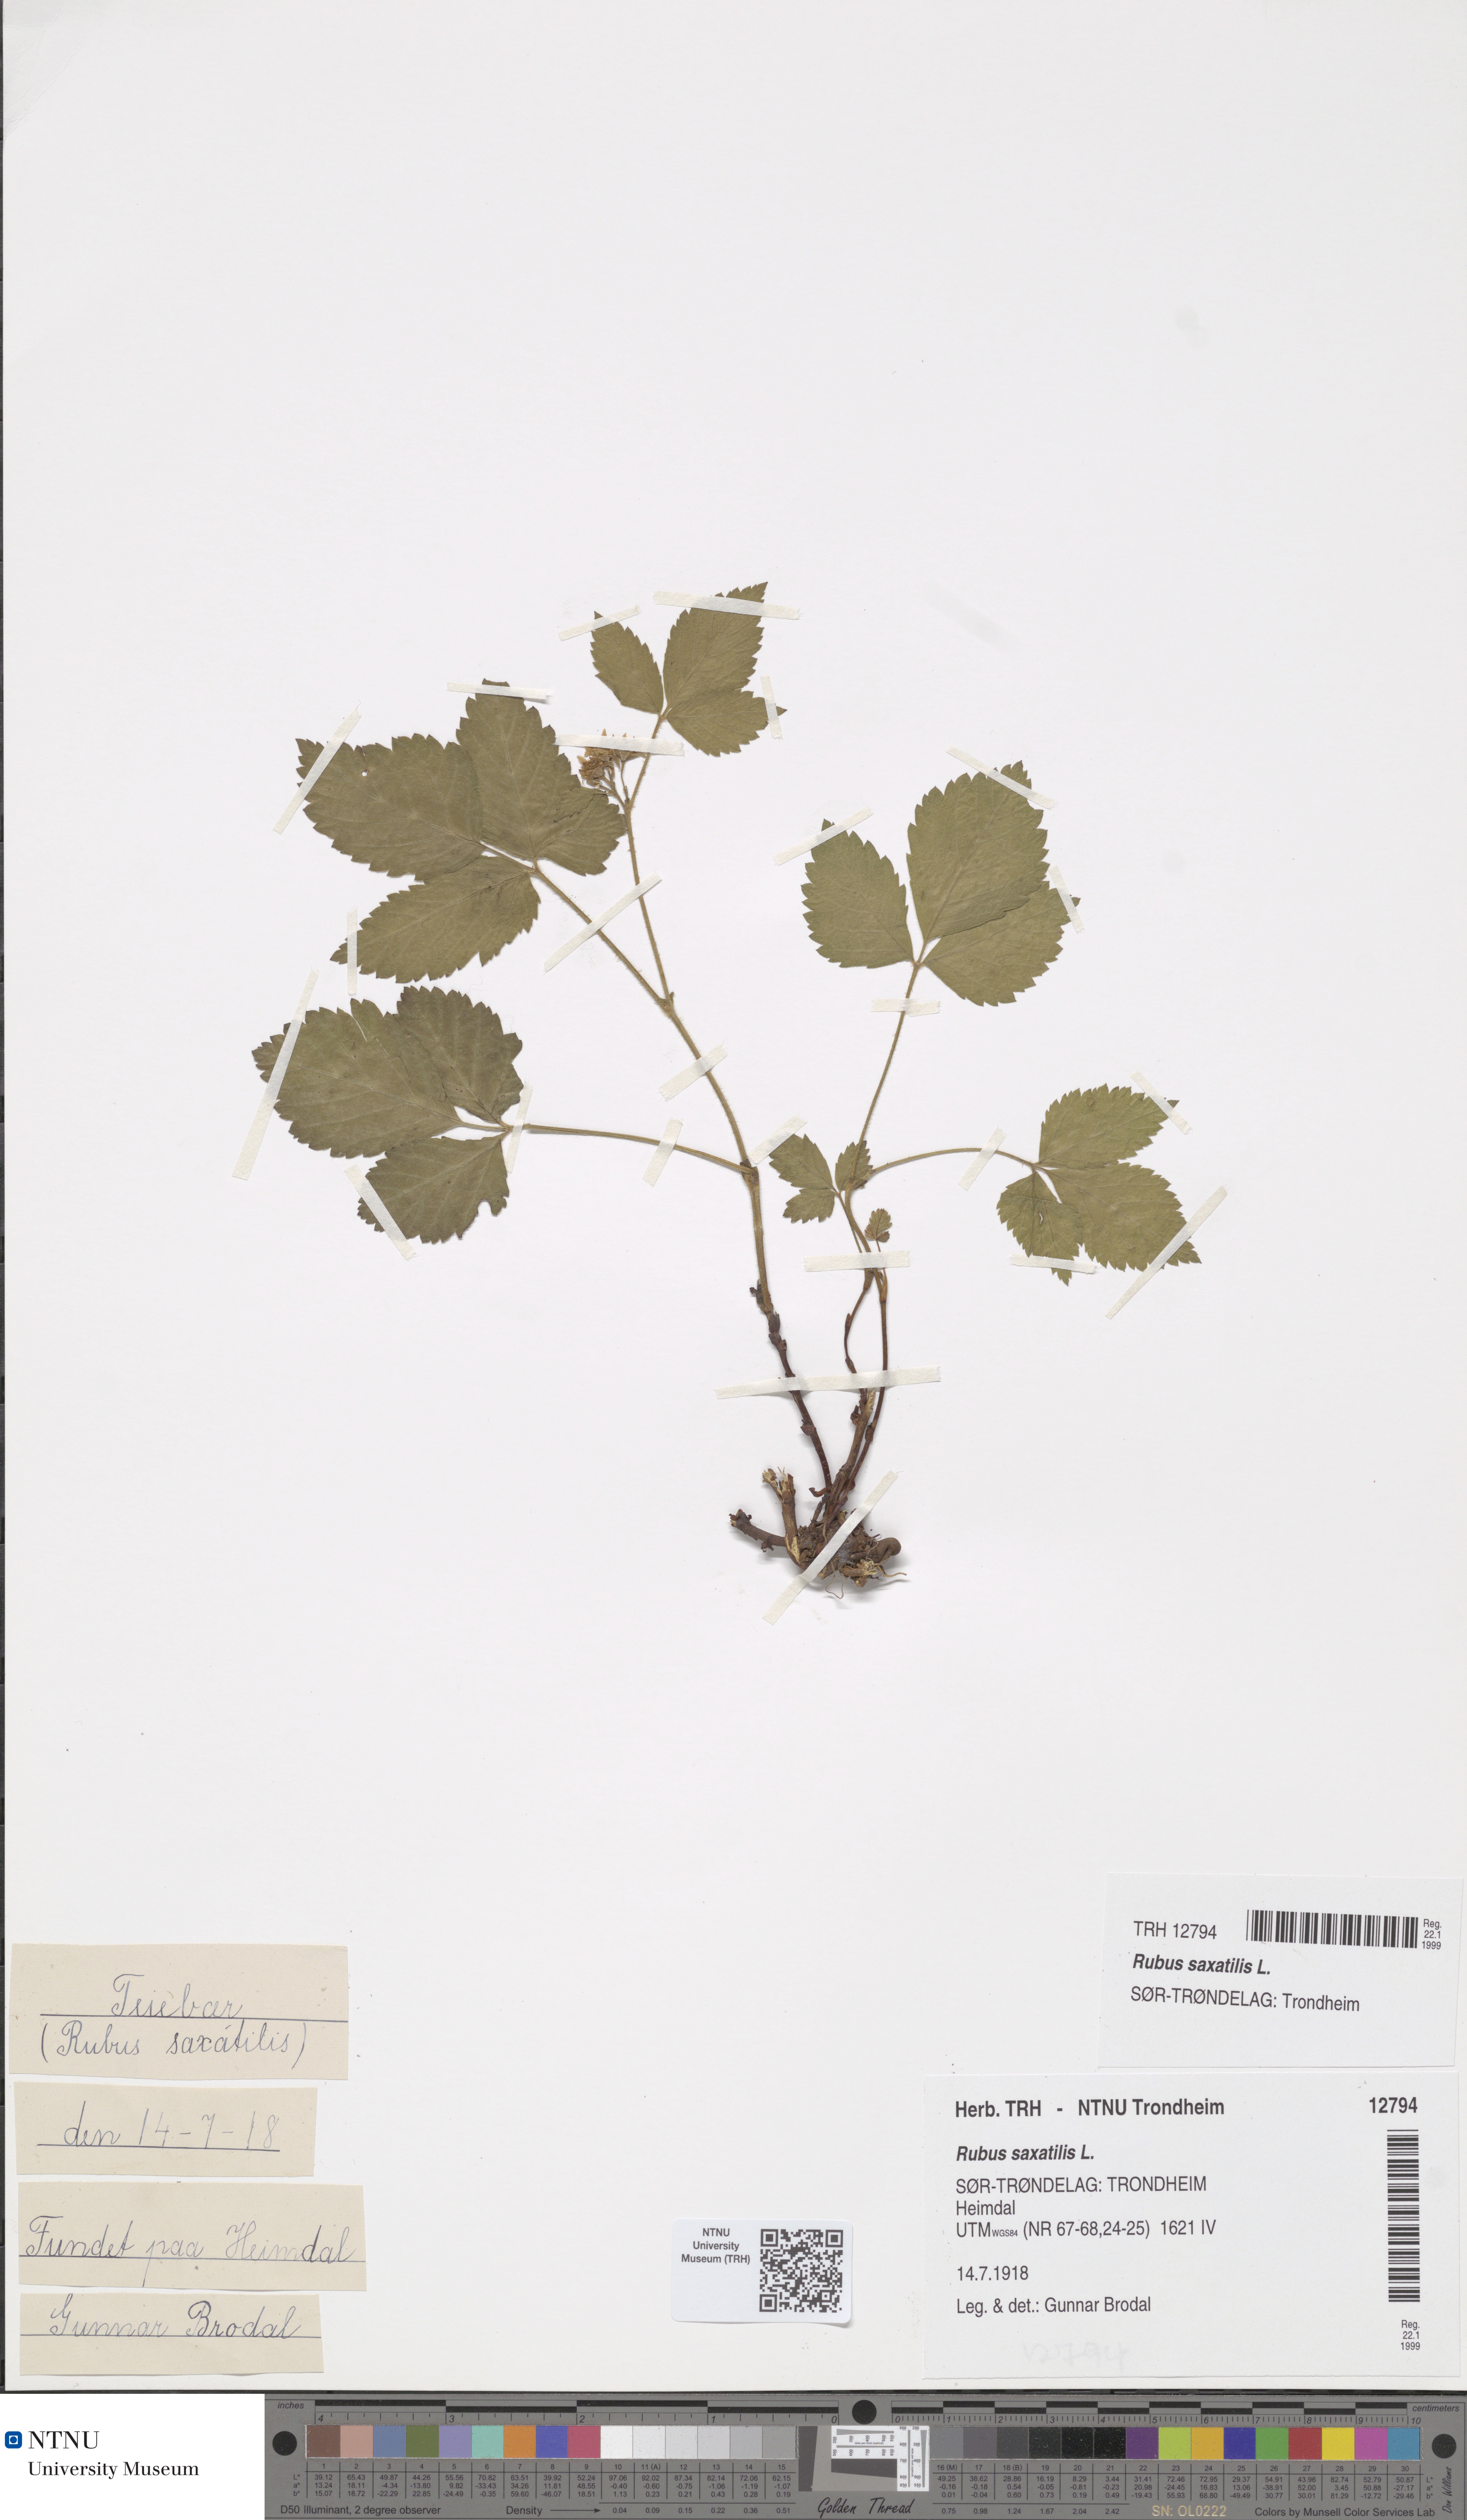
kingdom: Plantae
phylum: Tracheophyta
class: Magnoliopsida
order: Rosales
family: Rosaceae
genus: Rubus
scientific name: Rubus saxatilis
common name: Stone bramble
